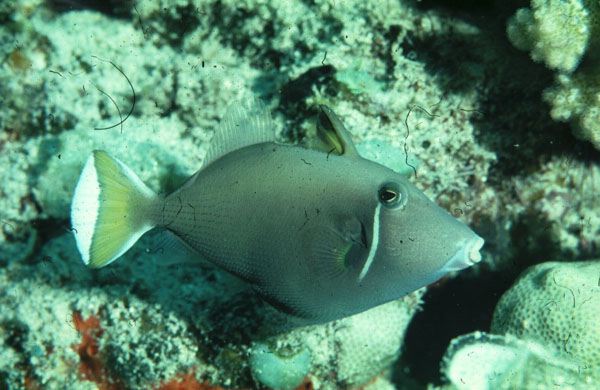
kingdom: Animalia
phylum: Chordata
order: Tetraodontiformes
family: Balistidae
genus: Sufflamen
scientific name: Sufflamen chrysopterum
